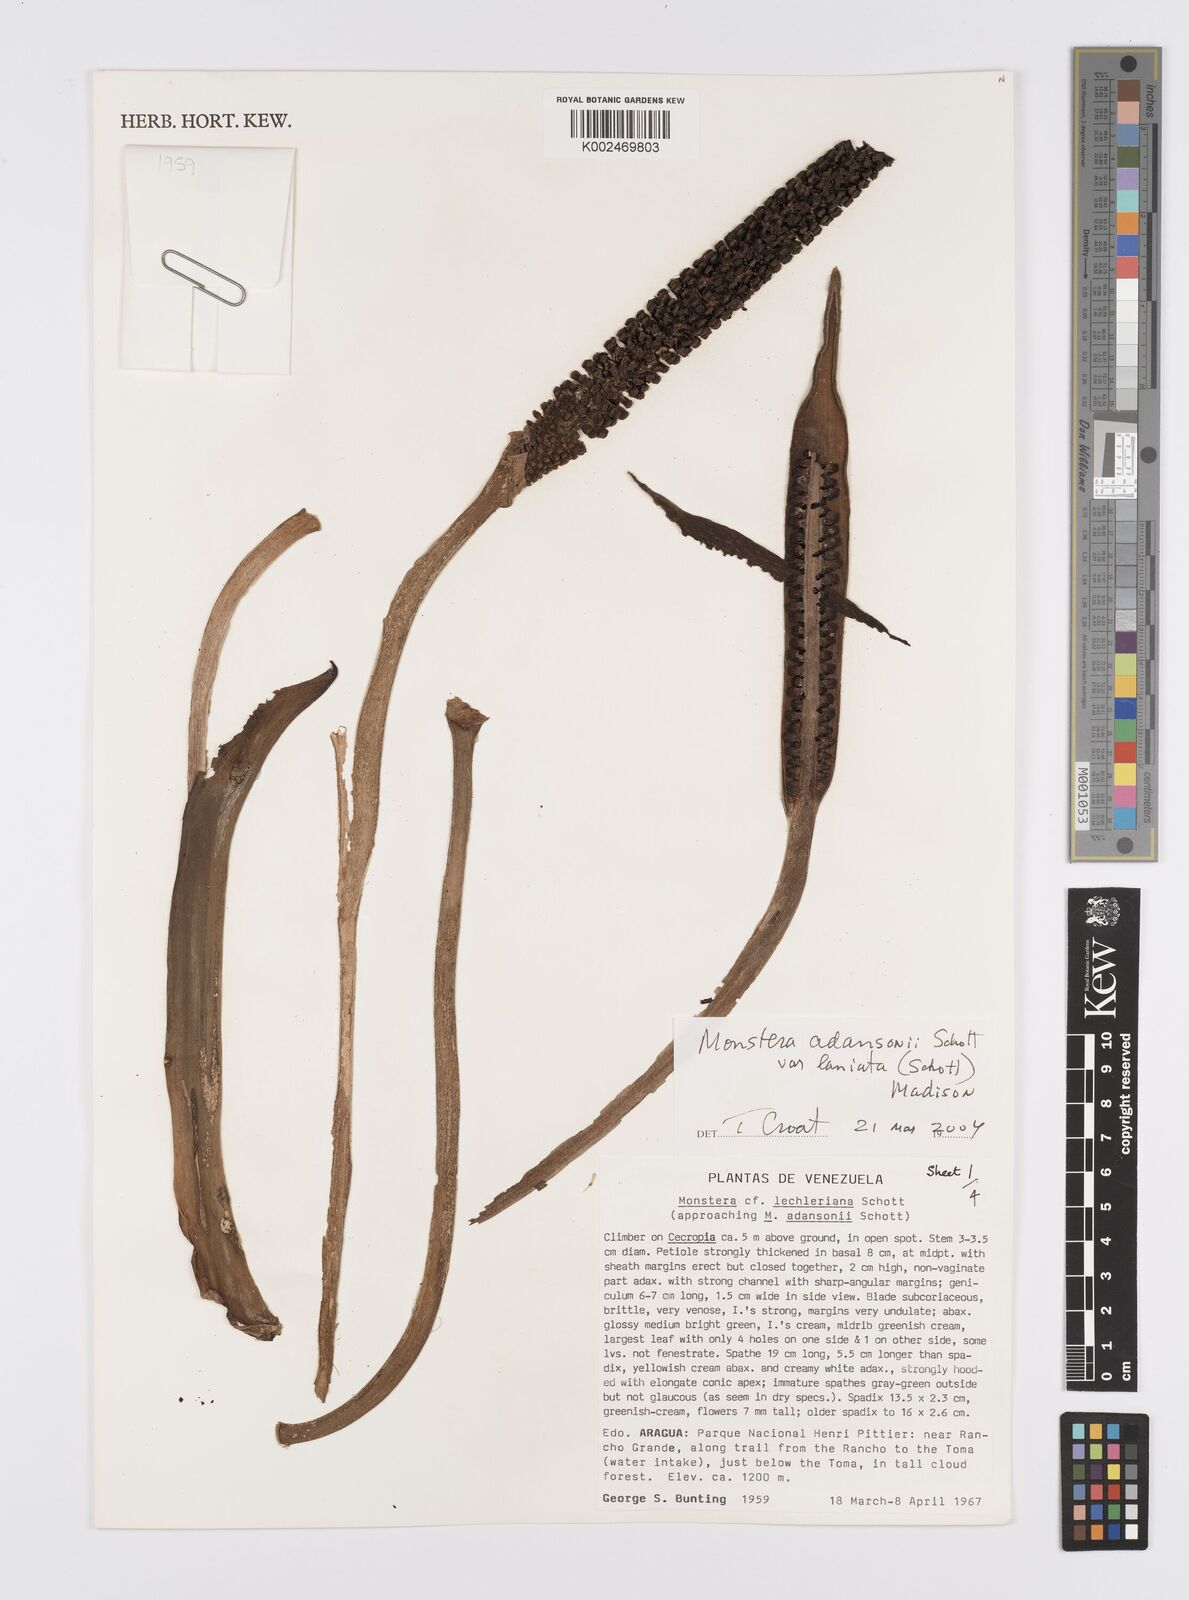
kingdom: Plantae
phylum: Tracheophyta
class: Liliopsida
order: Alismatales
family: Araceae
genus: Monstera
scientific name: Monstera adansonii
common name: Tarovine
